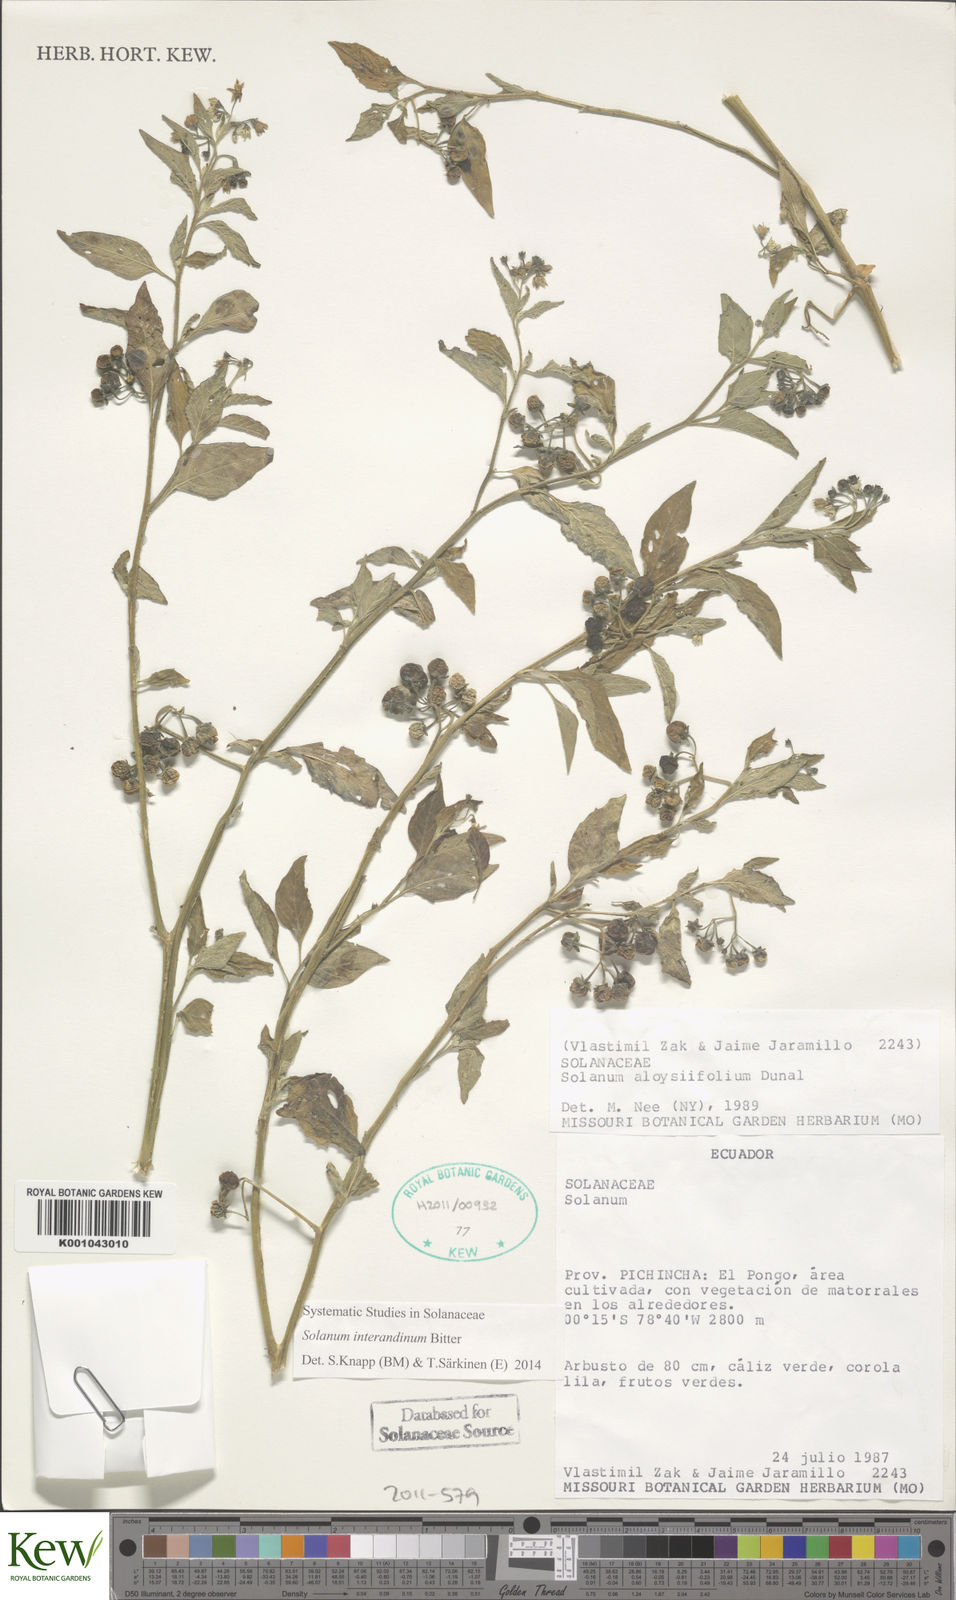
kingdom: Plantae
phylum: Tracheophyta
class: Magnoliopsida
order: Solanales
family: Solanaceae
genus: Solanum
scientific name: Solanum aloysiifolium
